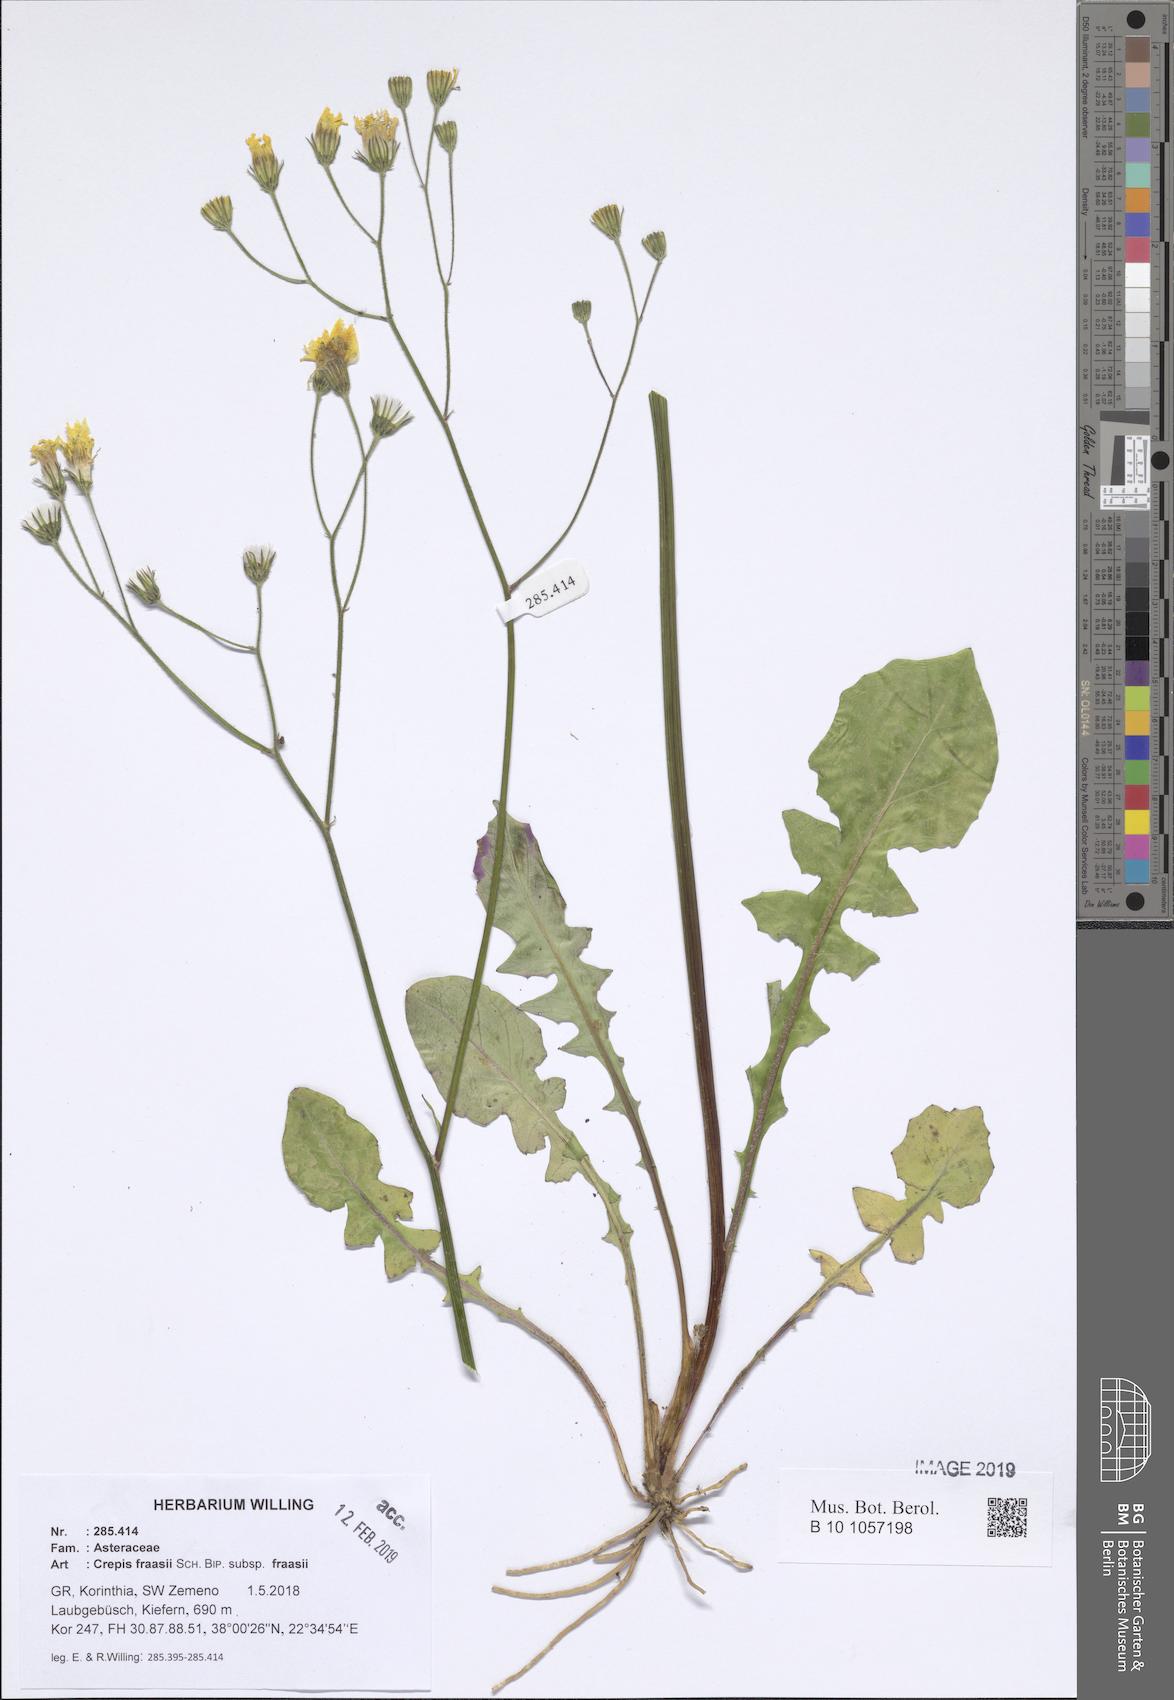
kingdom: Plantae
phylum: Tracheophyta
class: Magnoliopsida
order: Asterales
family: Asteraceae
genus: Crepis
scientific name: Crepis fraasii
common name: Hawk's-beard
